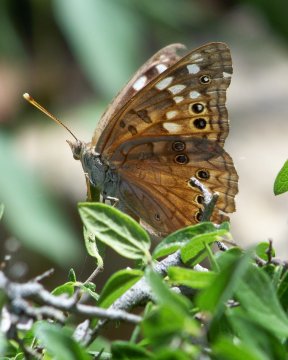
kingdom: Animalia
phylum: Arthropoda
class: Insecta
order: Lepidoptera
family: Nymphalidae
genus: Asterocampa
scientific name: Asterocampa leilia
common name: Empress Leilia
